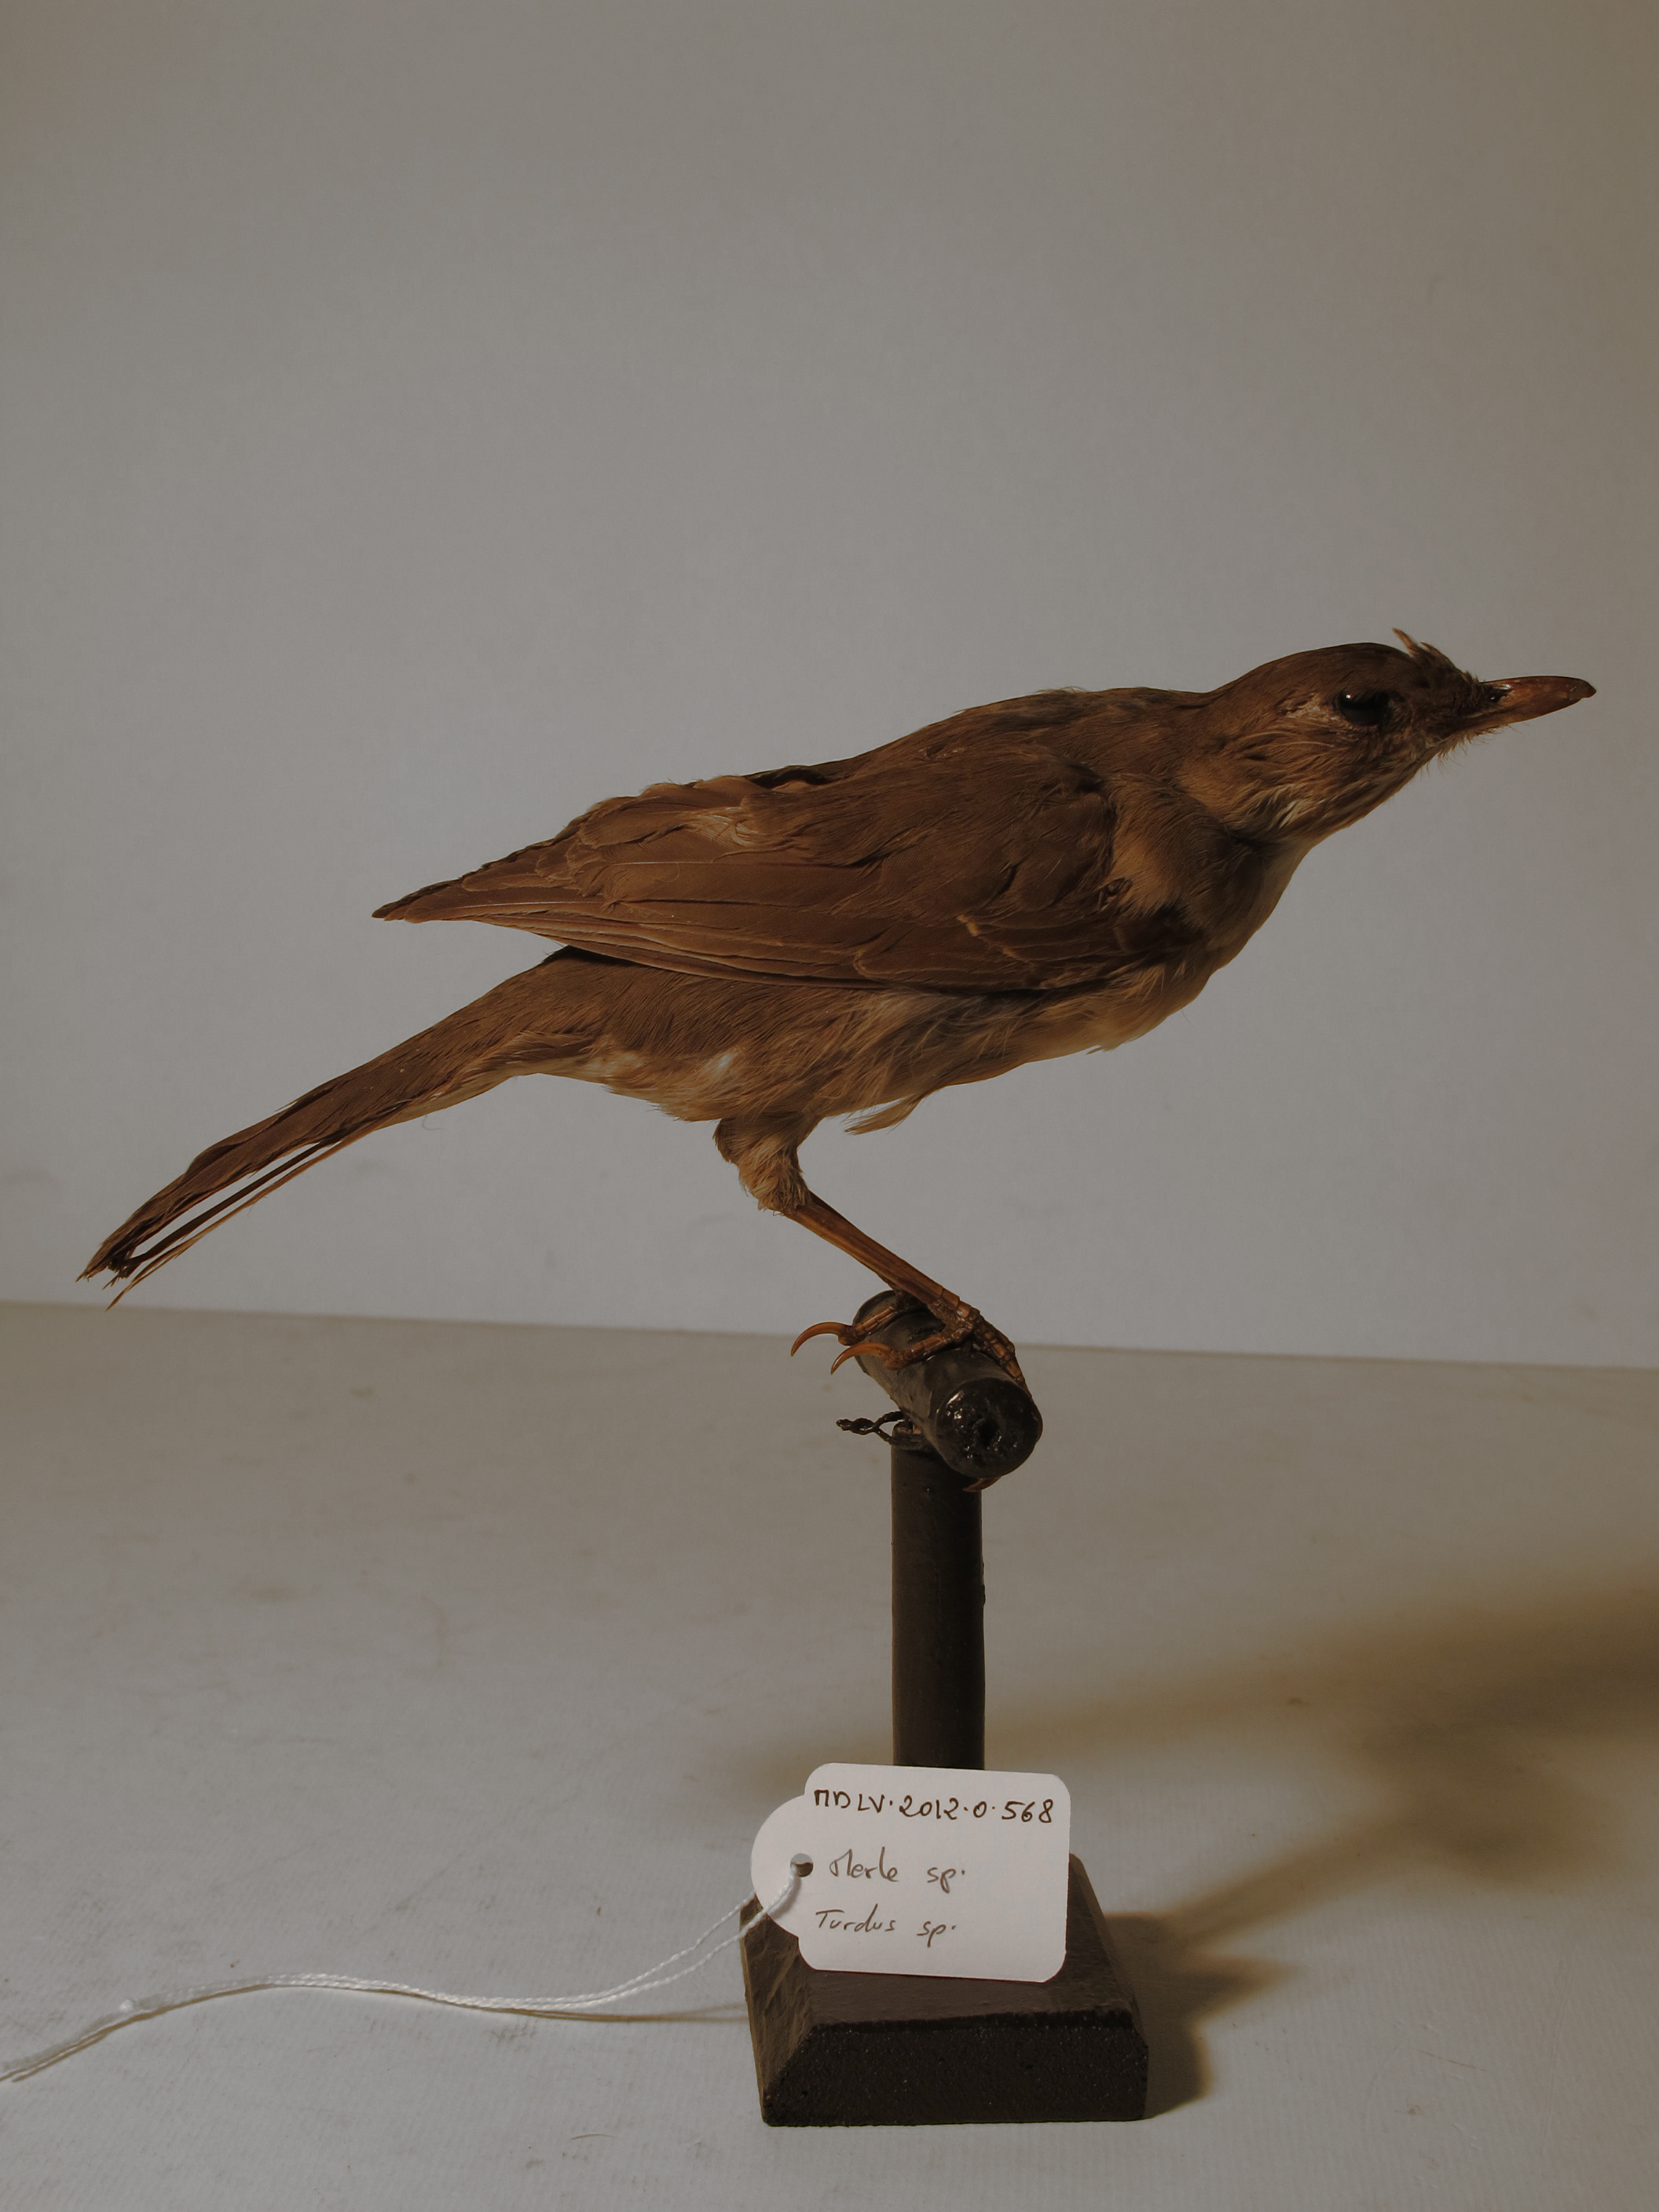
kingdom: Animalia
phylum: Chordata
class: Aves
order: Passeriformes
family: Turdidae
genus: Turdus
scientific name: Turdus
